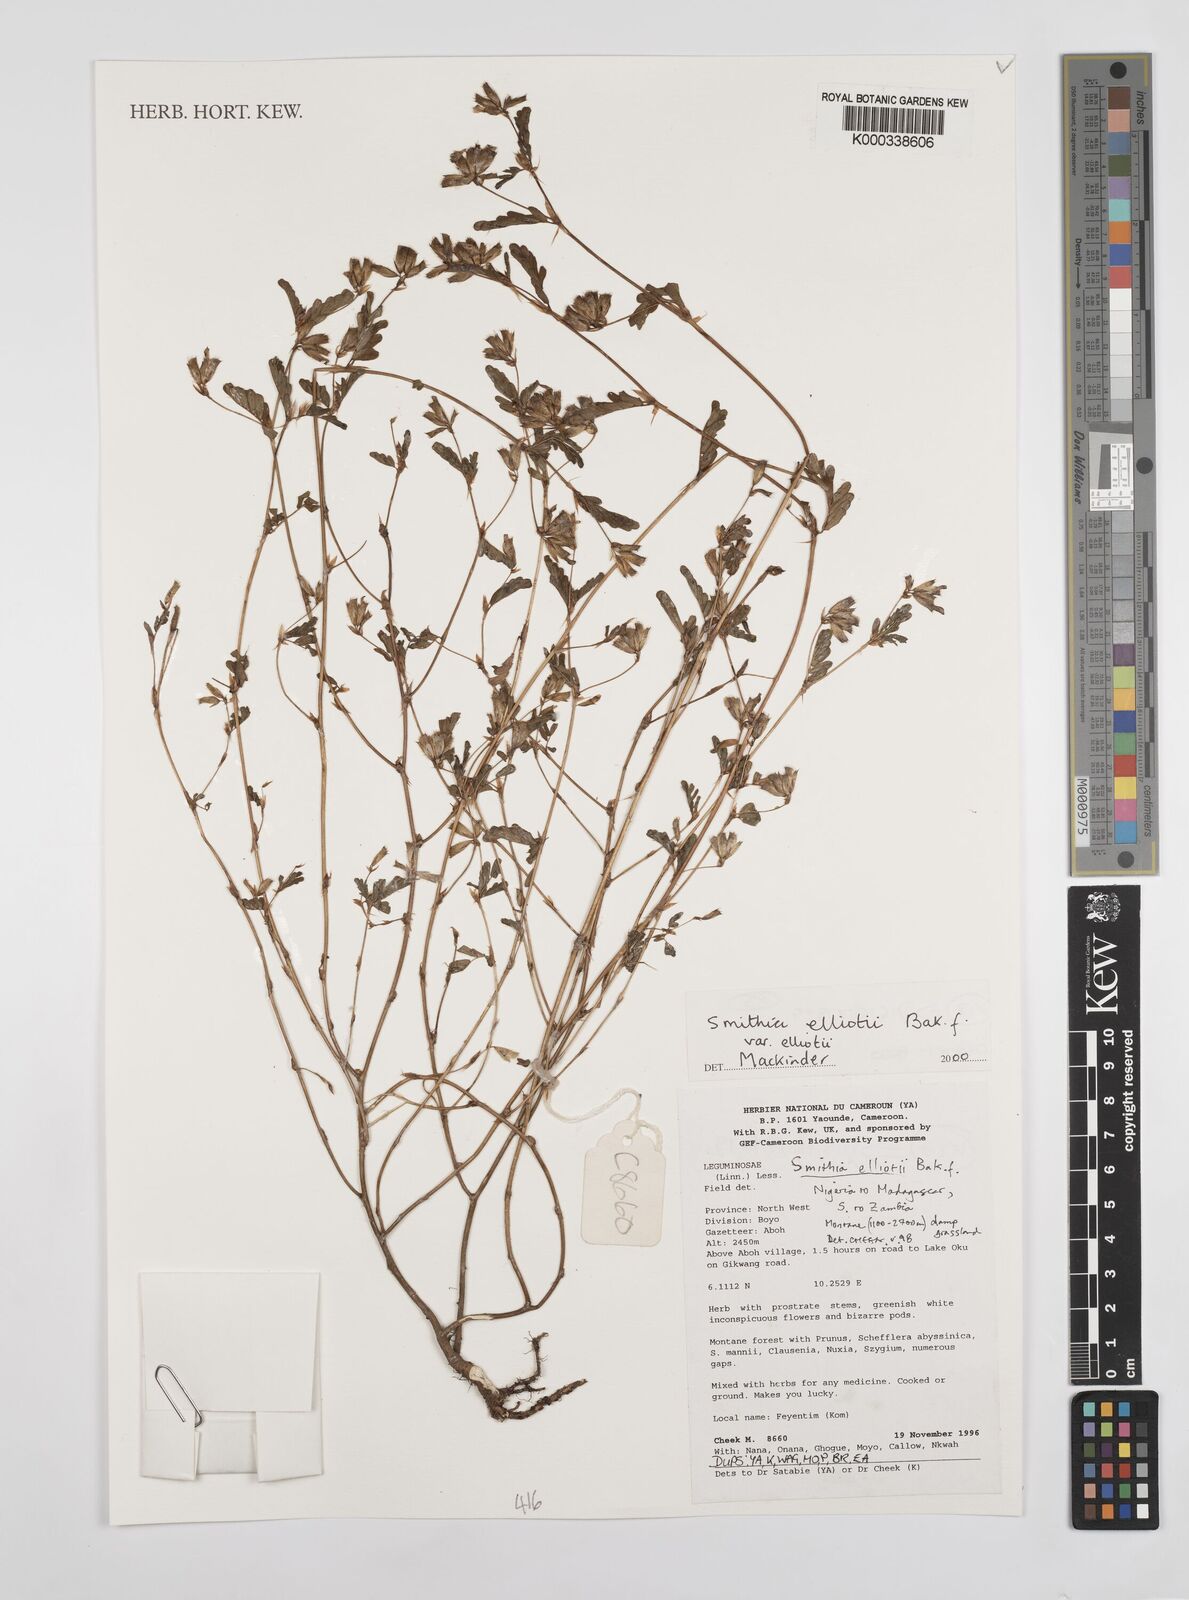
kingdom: Plantae
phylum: Tracheophyta
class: Magnoliopsida
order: Fabales
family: Fabaceae
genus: Smithia
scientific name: Smithia elliotii
